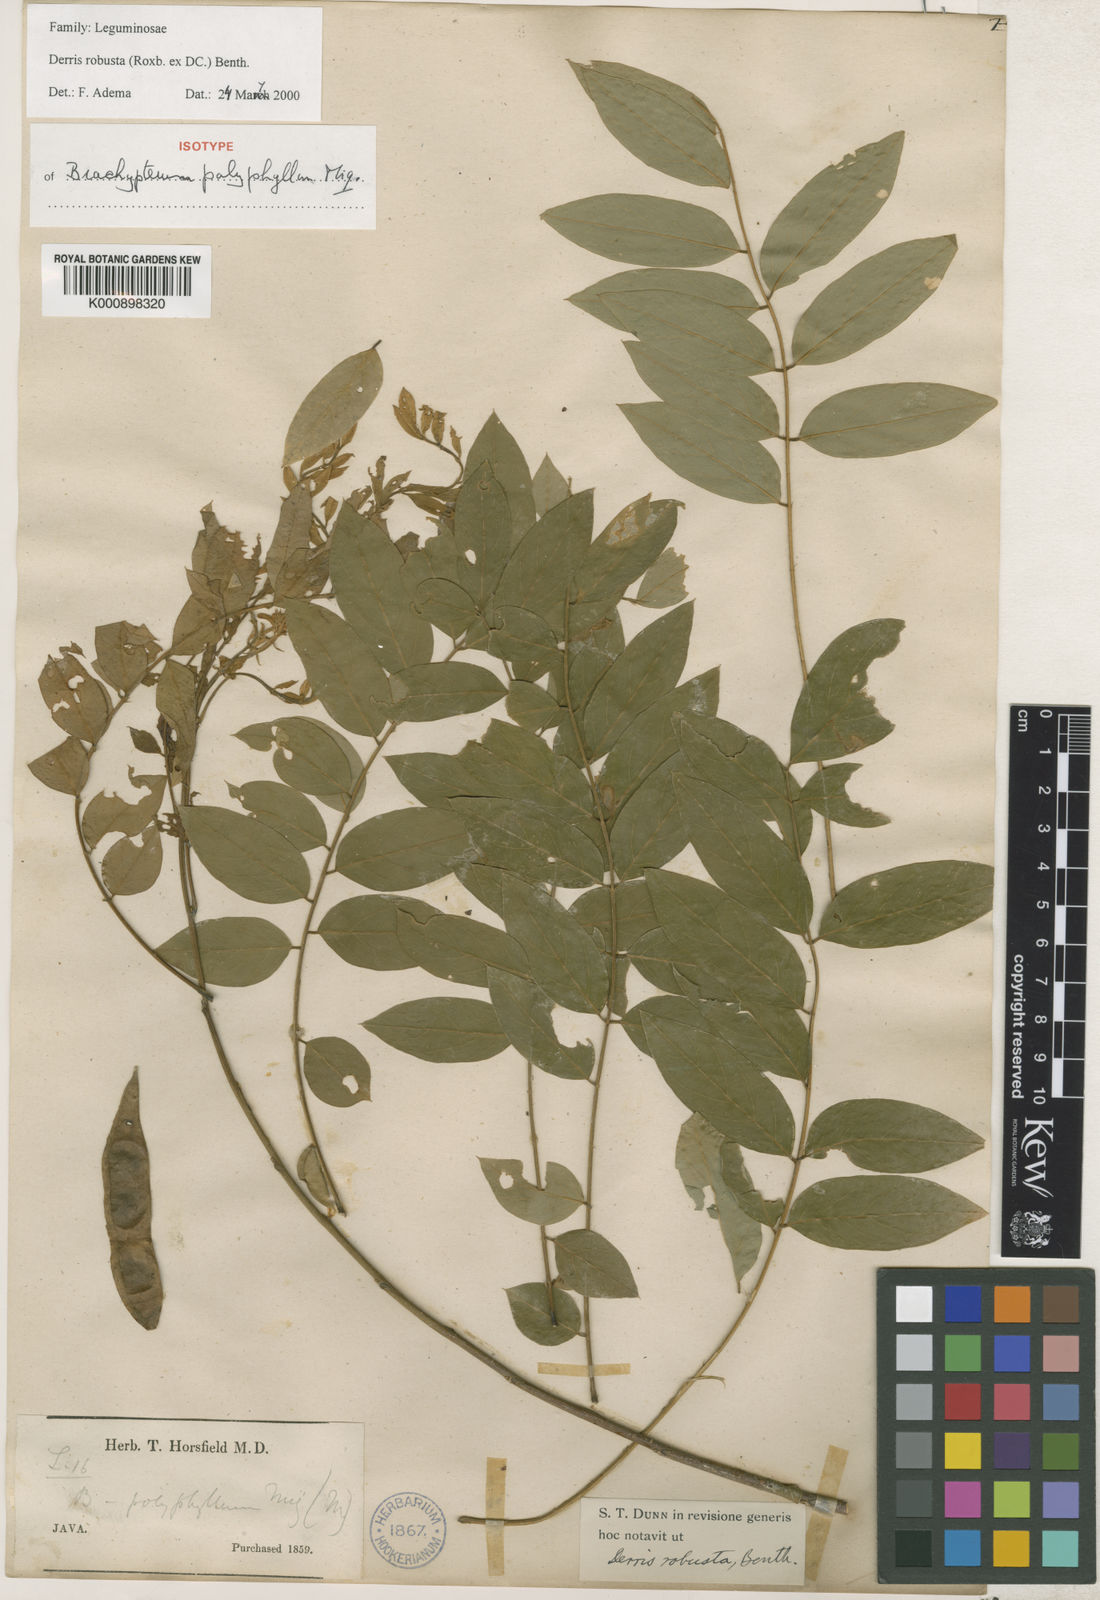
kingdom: Plantae
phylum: Tracheophyta
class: Magnoliopsida
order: Fabales
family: Fabaceae
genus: Brachypterum
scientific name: Brachypterum robustum
